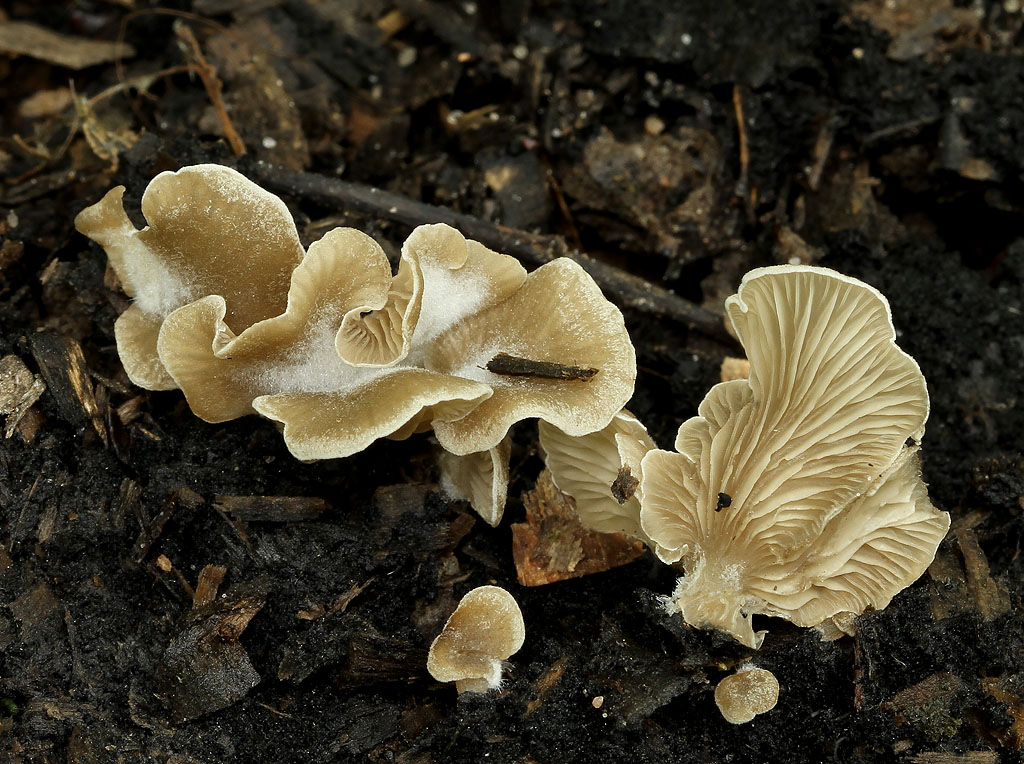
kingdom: Fungi
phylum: Basidiomycota
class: Agaricomycetes
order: Agaricales
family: Hygrophoraceae
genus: Arrhenia
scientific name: Arrhenia glauca
